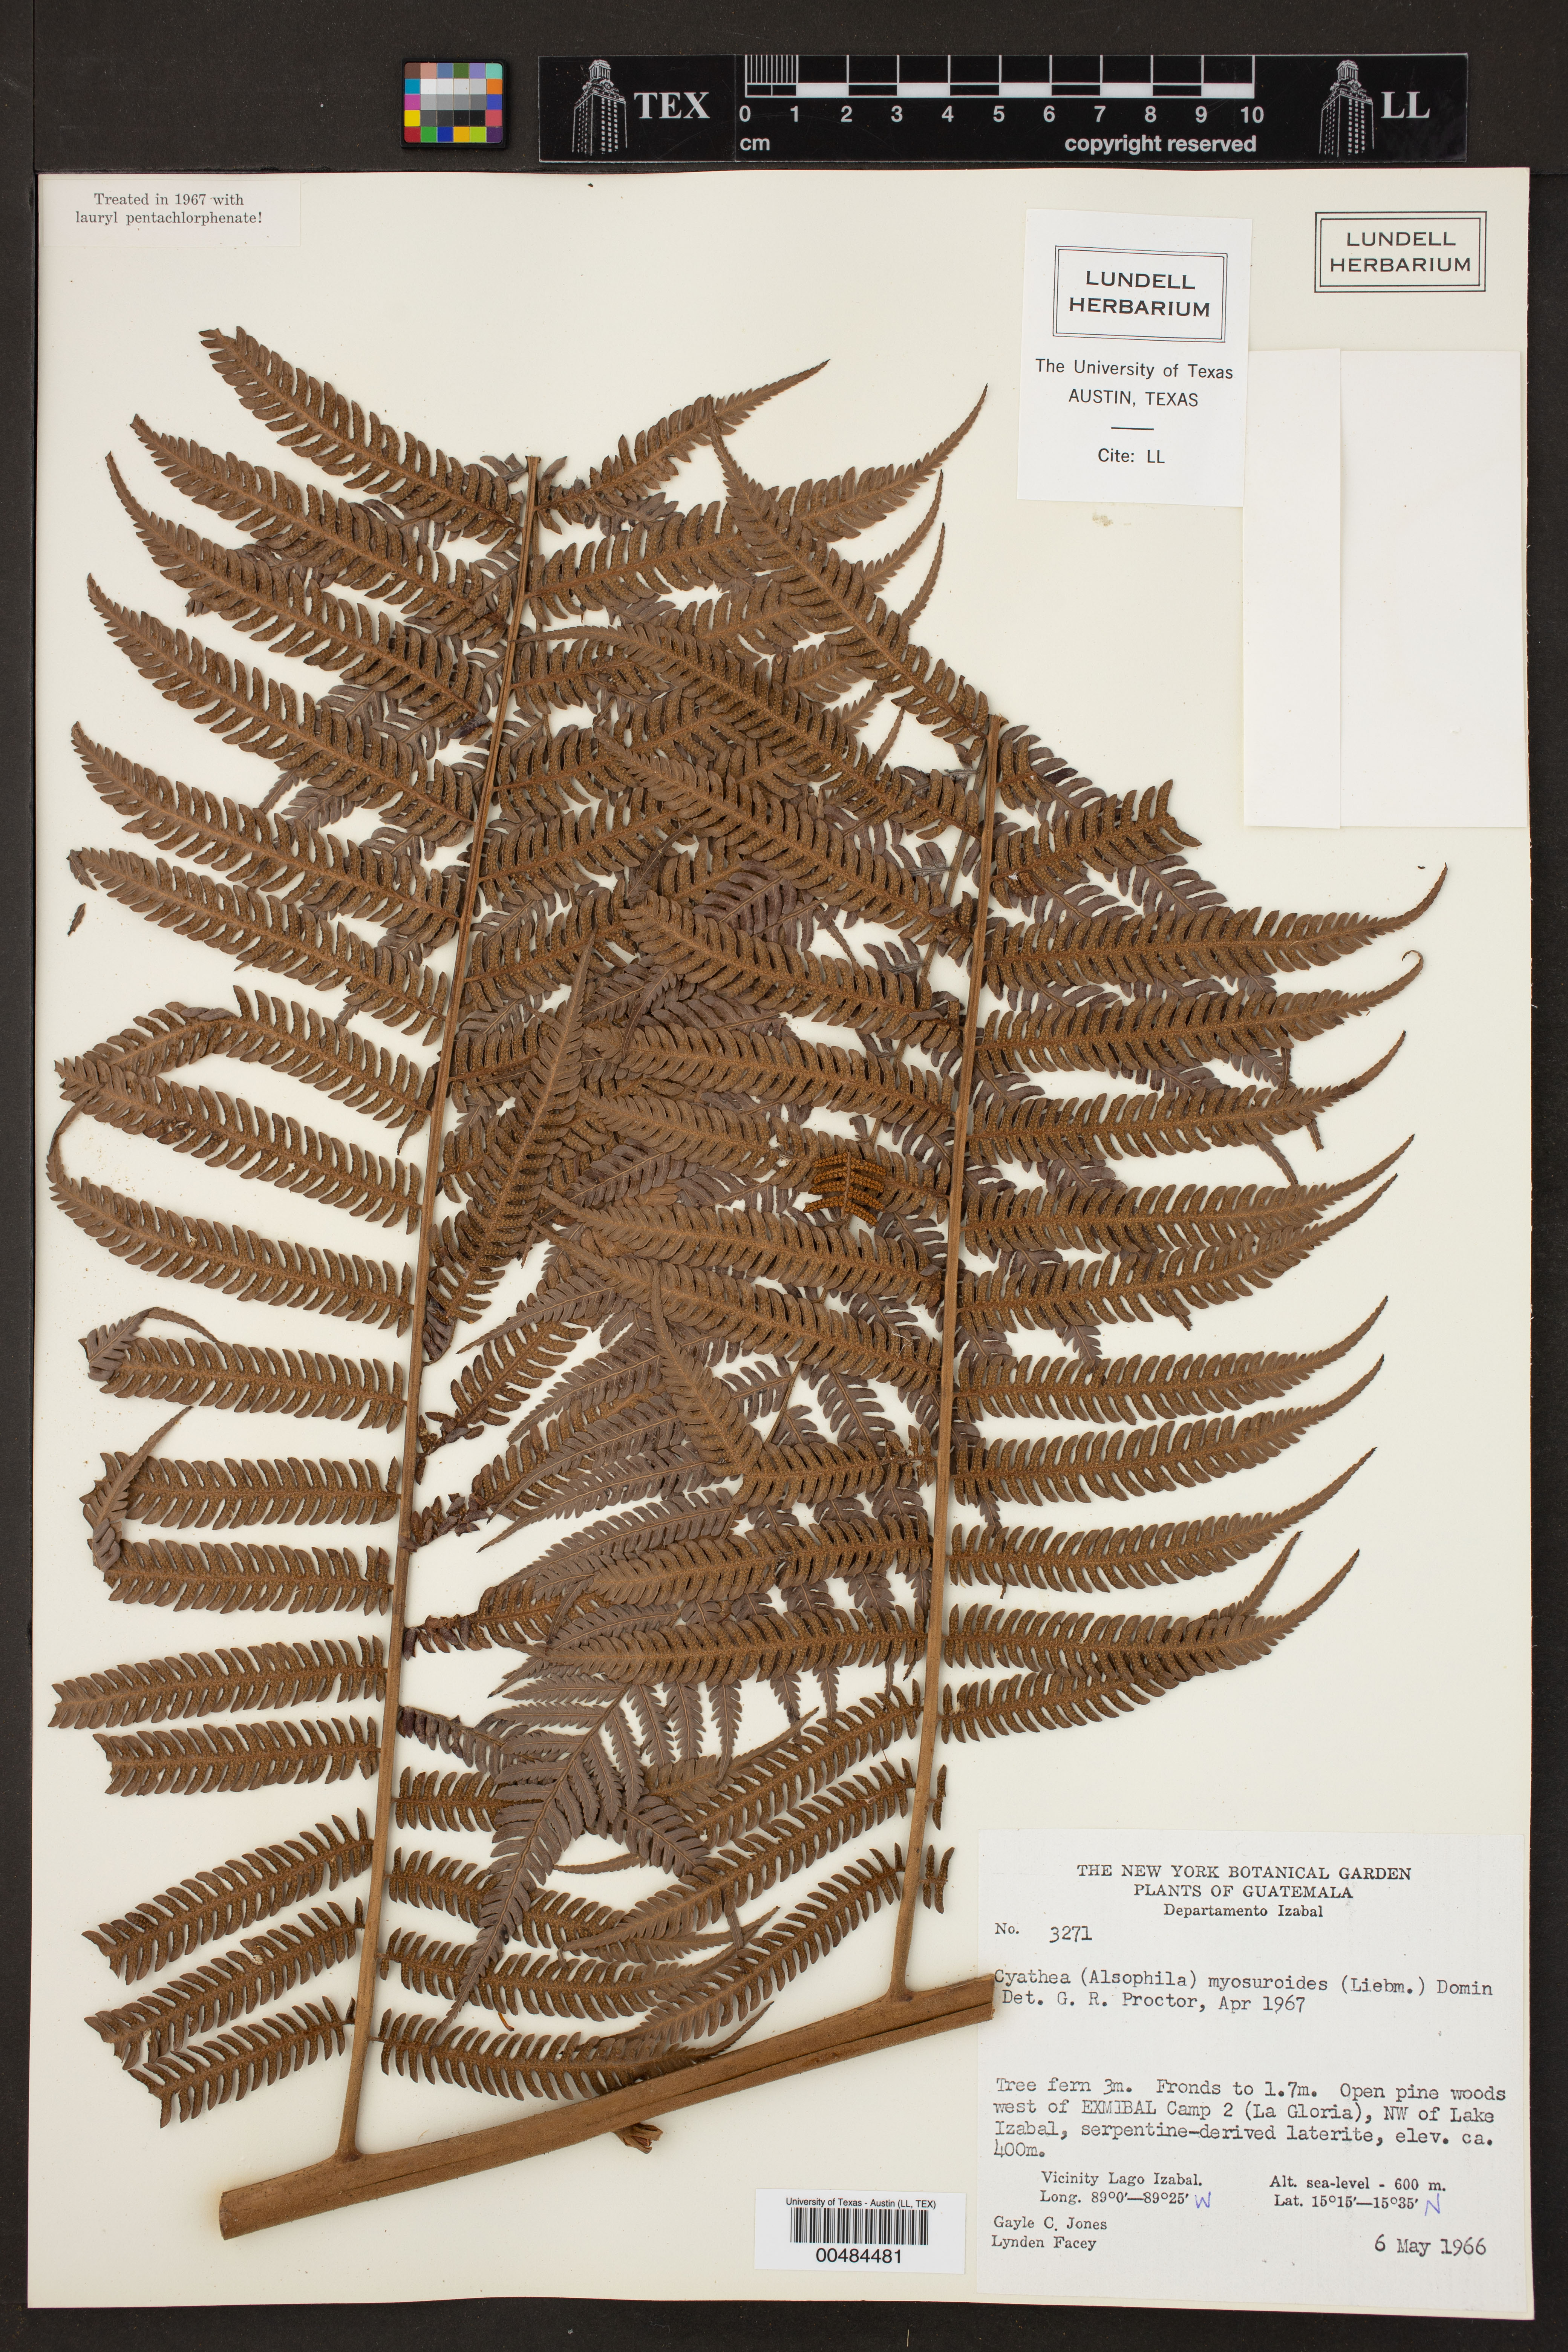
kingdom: Plantae
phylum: Tracheophyta
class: Polypodiopsida
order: Cyatheales
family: Cyatheaceae
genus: Sphaeropteris
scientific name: Sphaeropteris myosuroides
